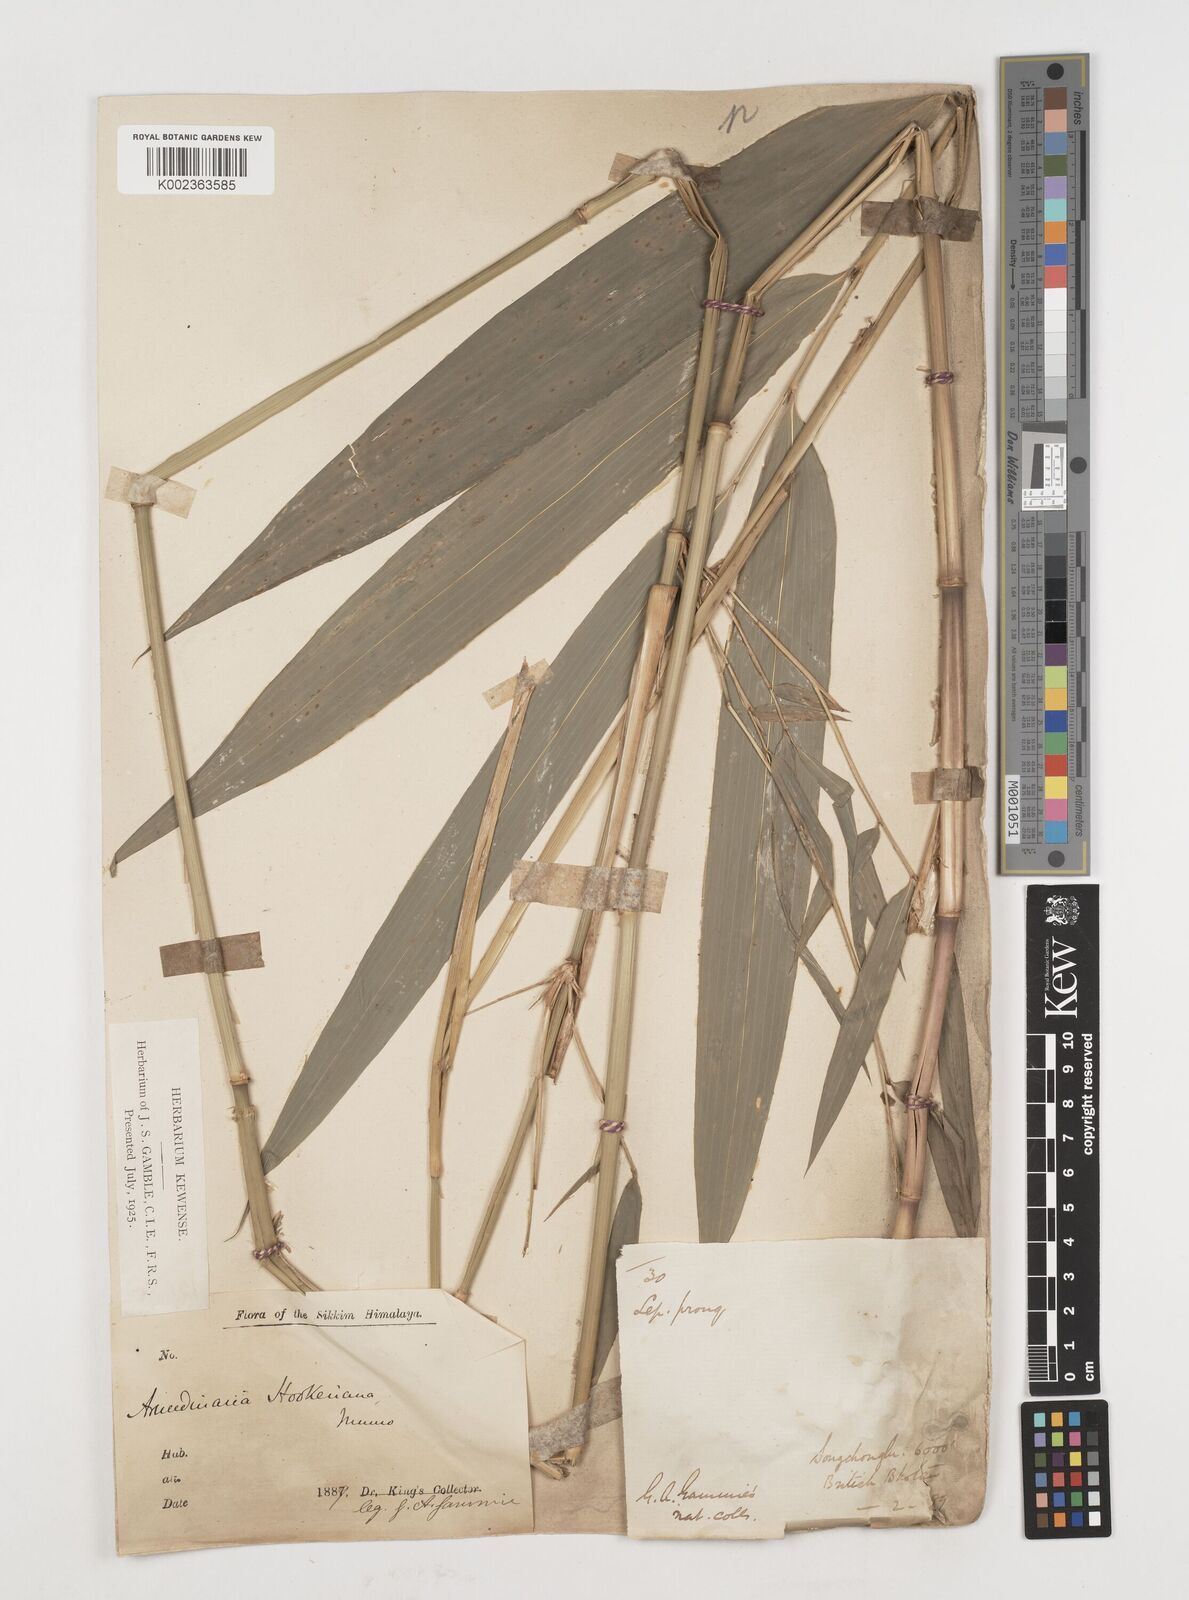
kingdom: Plantae
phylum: Tracheophyta
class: Liliopsida
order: Poales
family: Poaceae
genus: Himalayacalamus
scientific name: Himalayacalamus hookerianus
